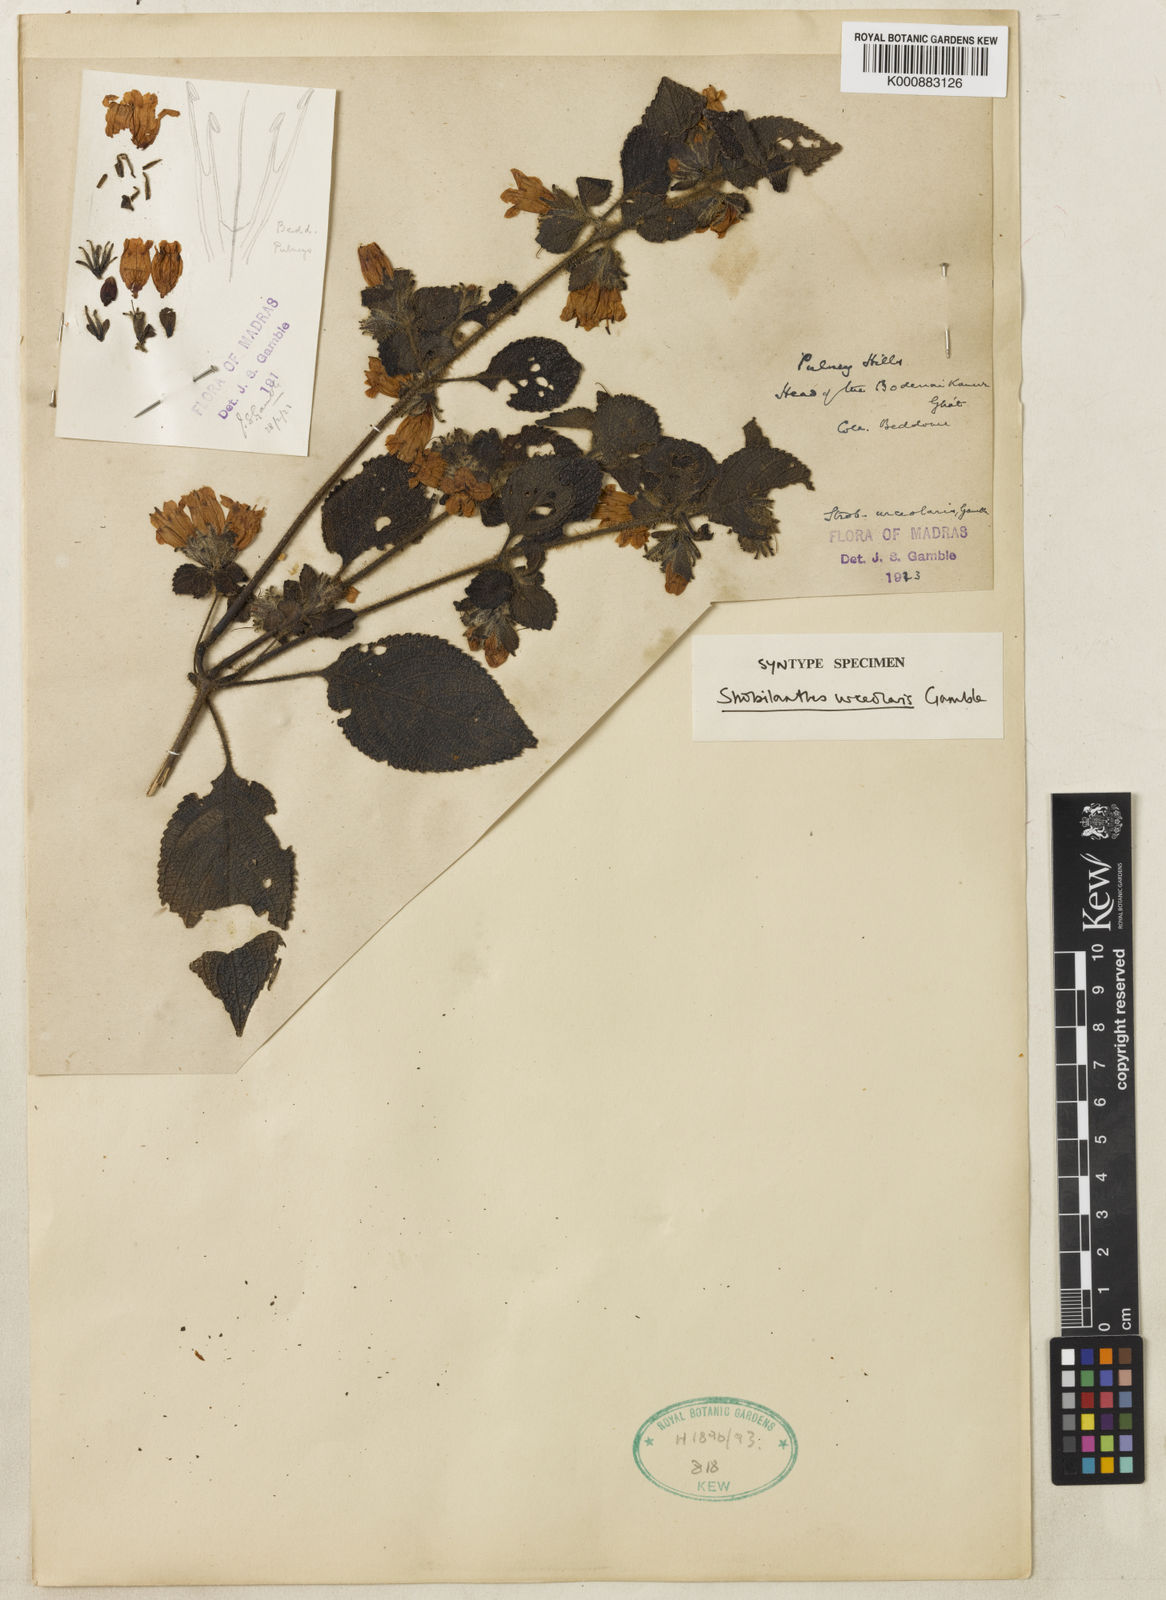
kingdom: Plantae
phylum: Tracheophyta
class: Magnoliopsida
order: Lamiales
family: Acanthaceae
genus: Strobilanthes
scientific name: Strobilanthes urceolaris
